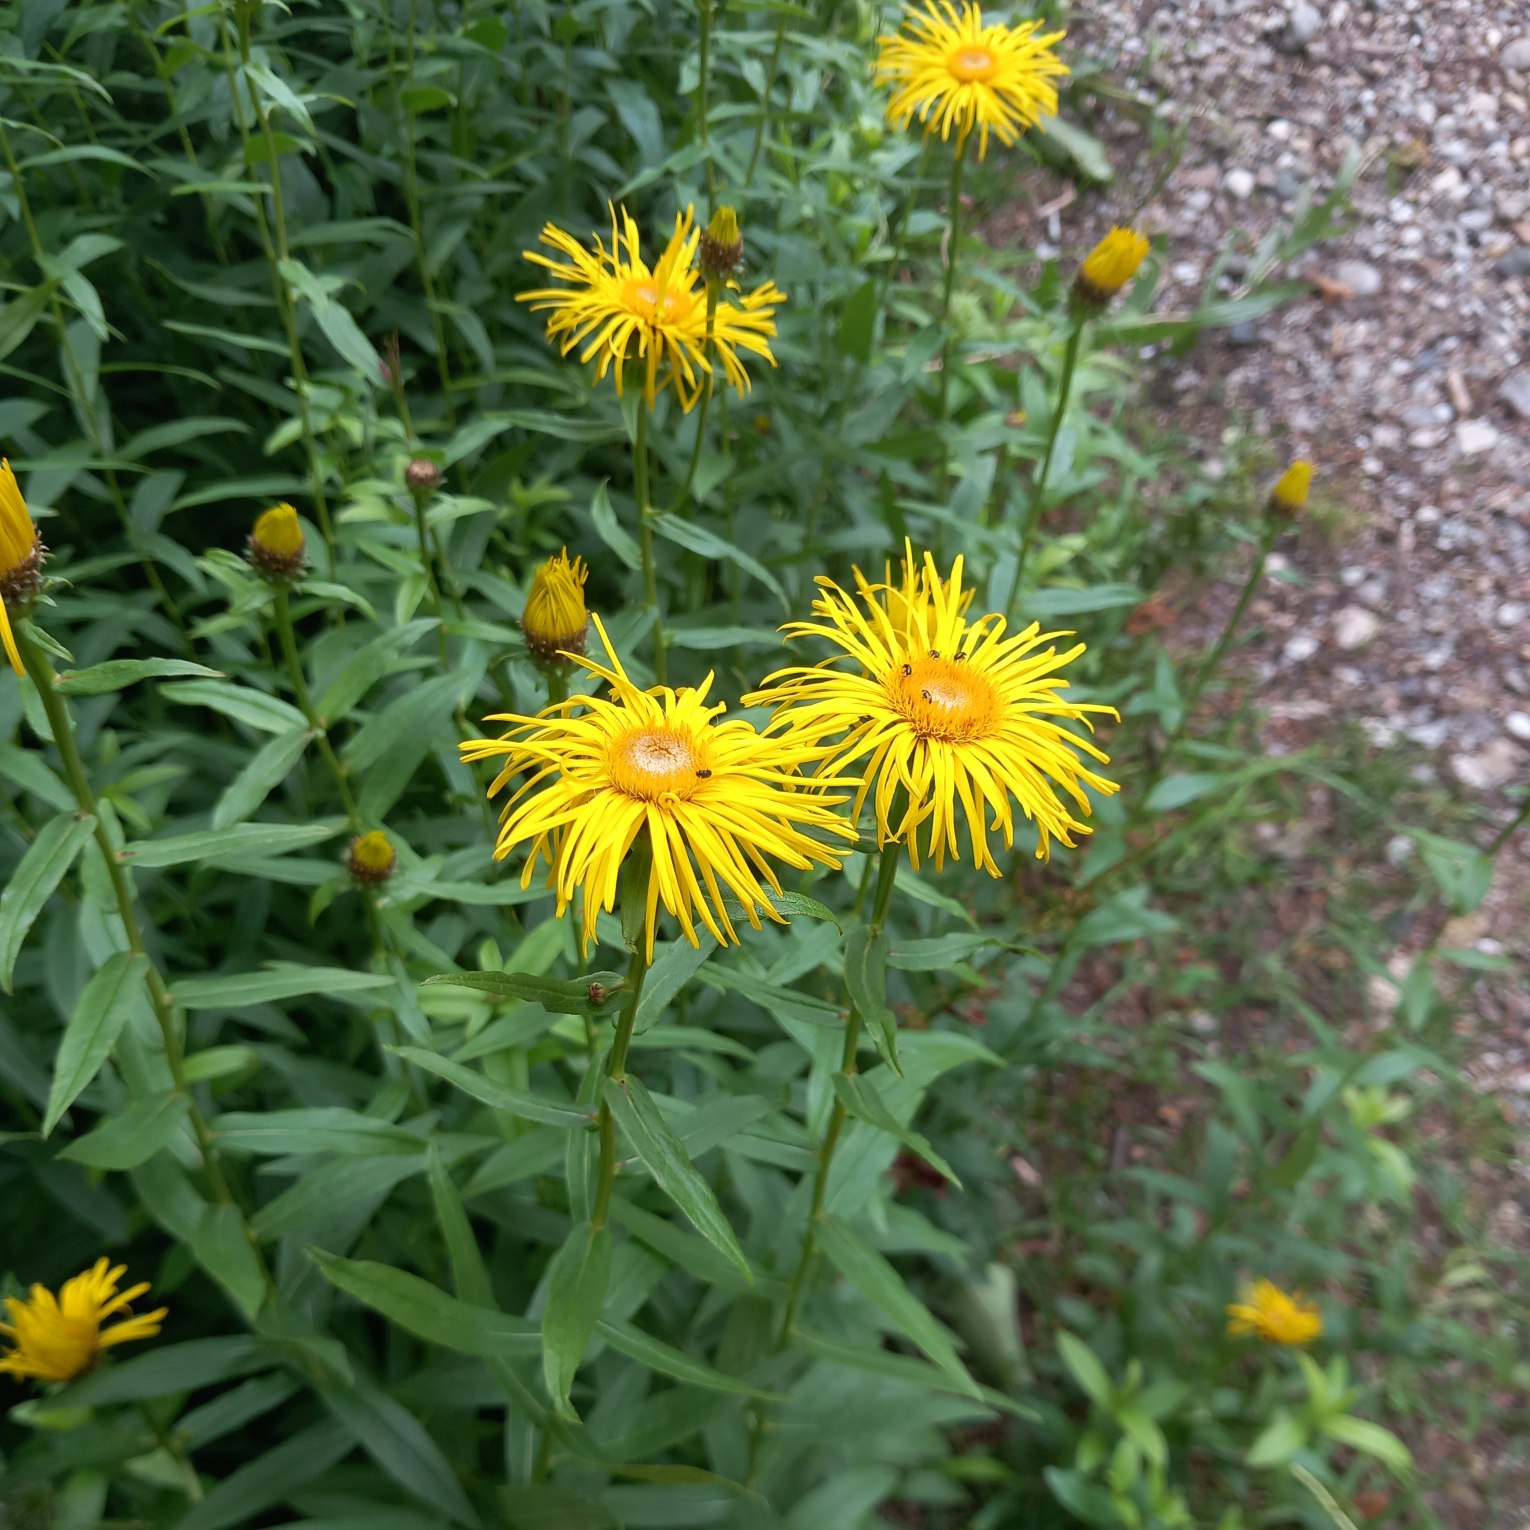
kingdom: Plantae
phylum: Tracheophyta
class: Magnoliopsida
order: Asterales
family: Asteraceae
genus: Pentanema
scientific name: Pentanema salicinum
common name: Pile-alant
